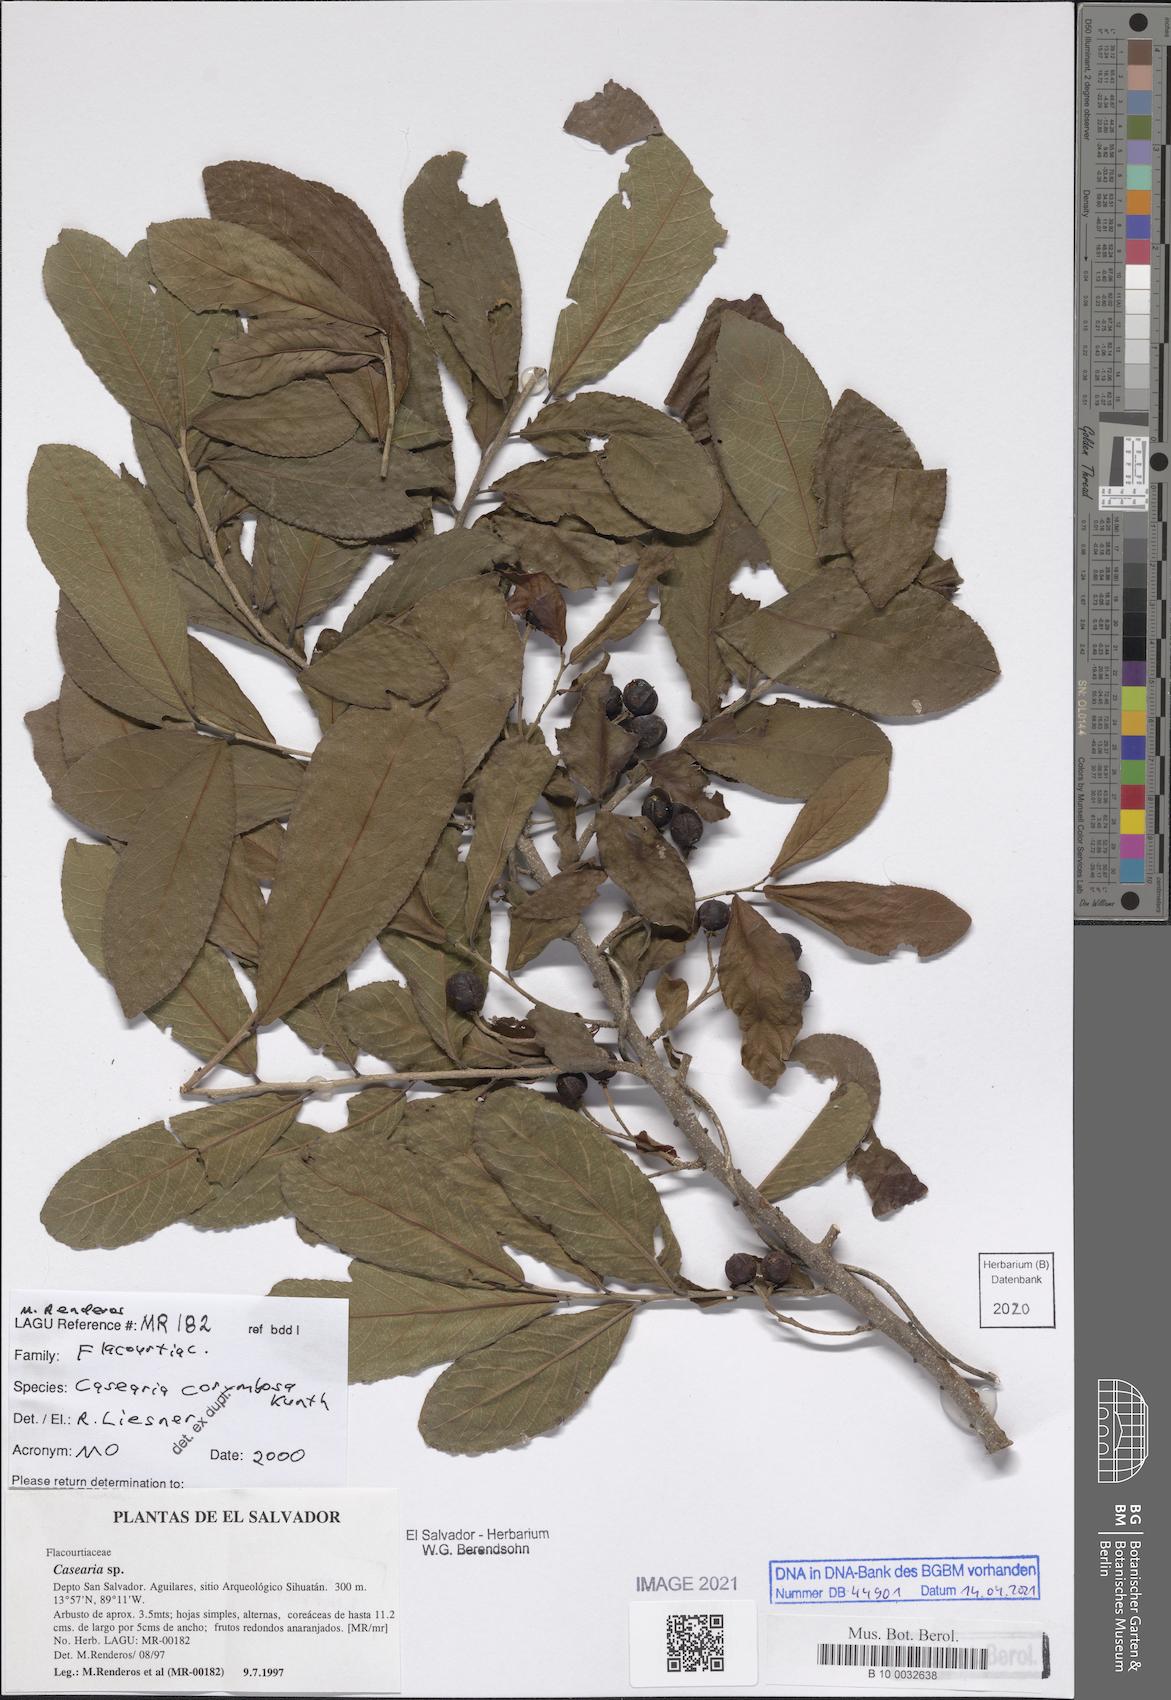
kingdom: Plantae
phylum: Tracheophyta
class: Magnoliopsida
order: Malpighiales
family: Salicaceae
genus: Casearia
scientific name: Casearia corymbosa
